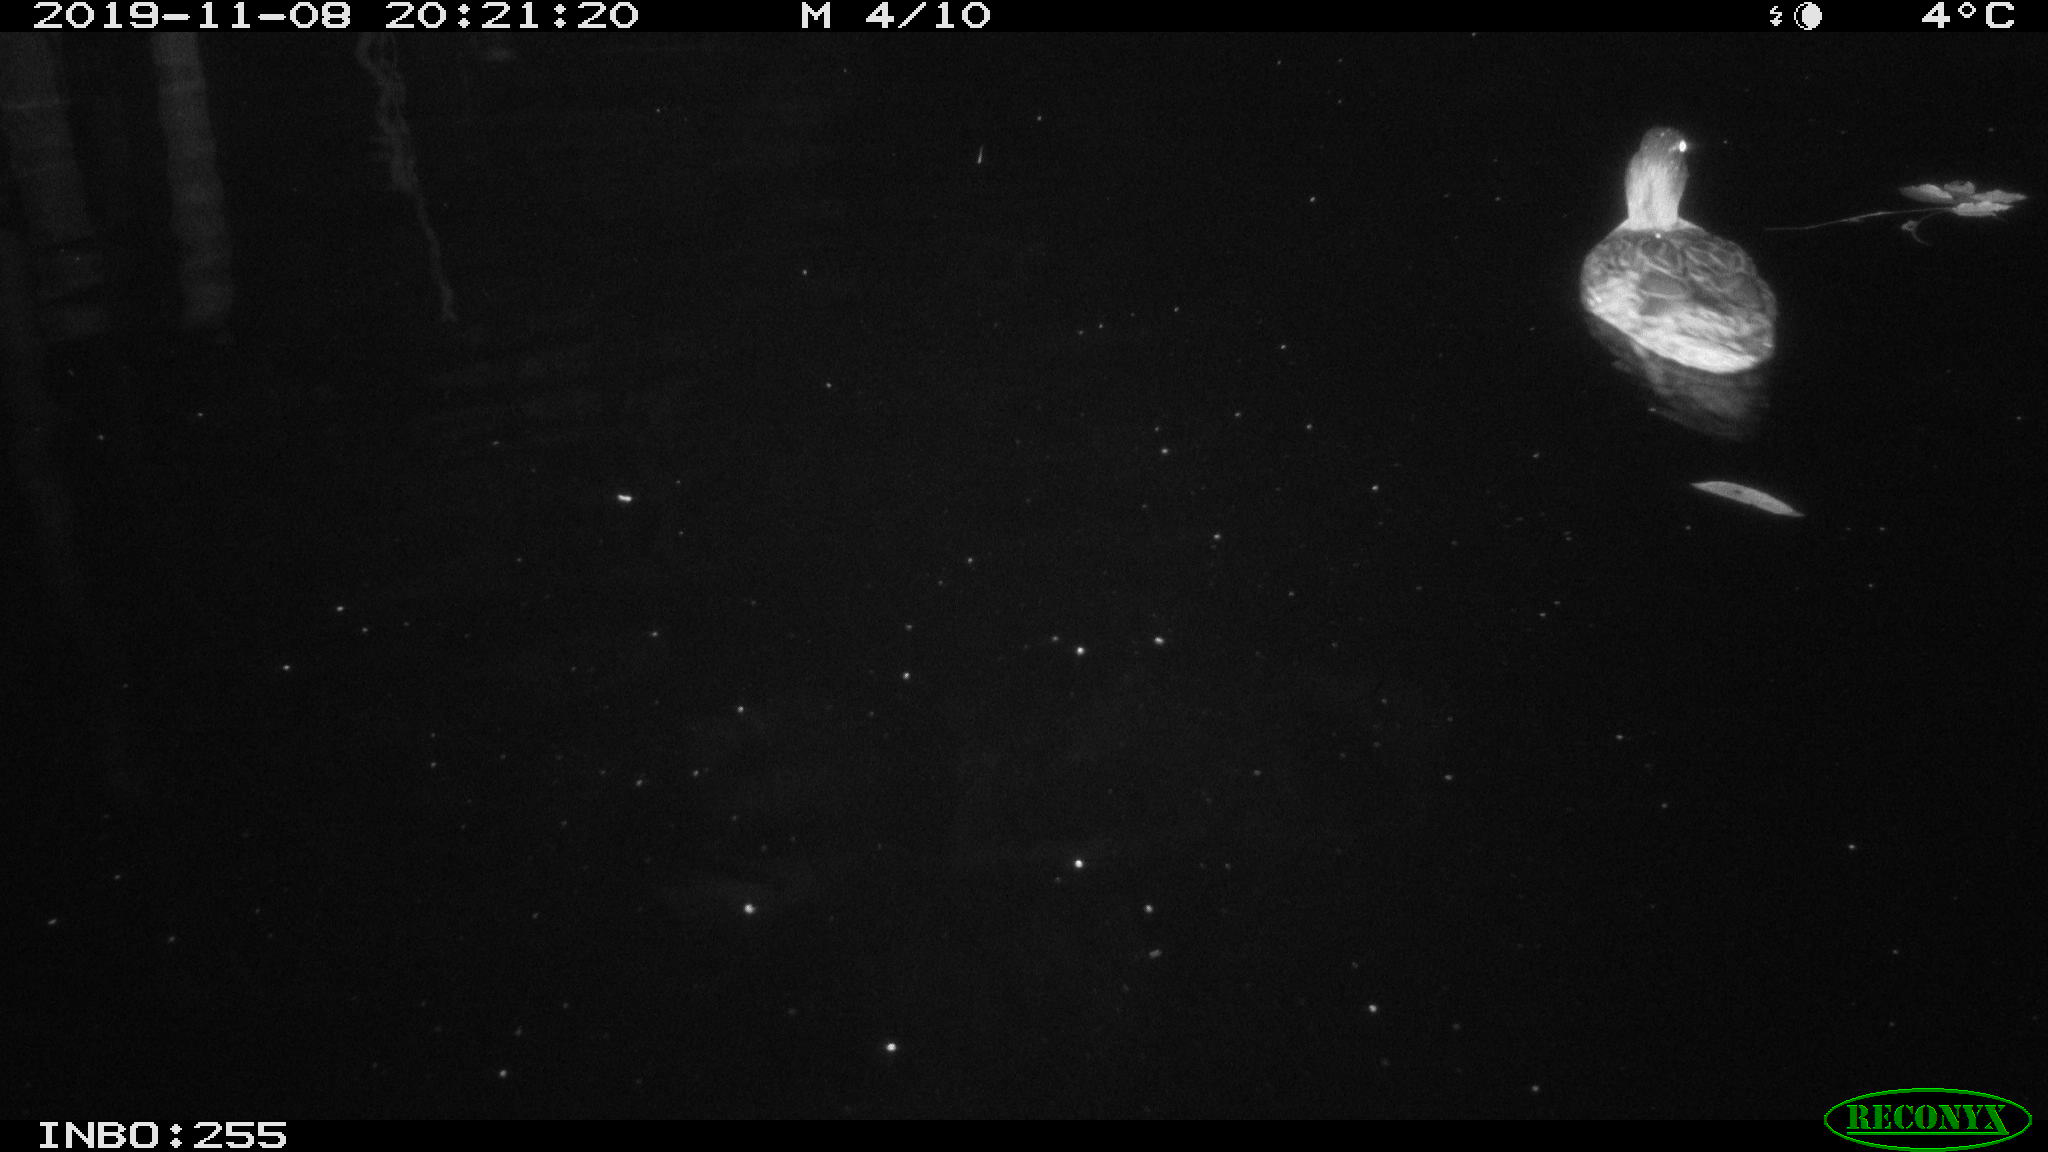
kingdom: Animalia
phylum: Chordata
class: Aves
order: Anseriformes
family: Anatidae
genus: Anas
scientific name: Anas platyrhynchos
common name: Mallard
